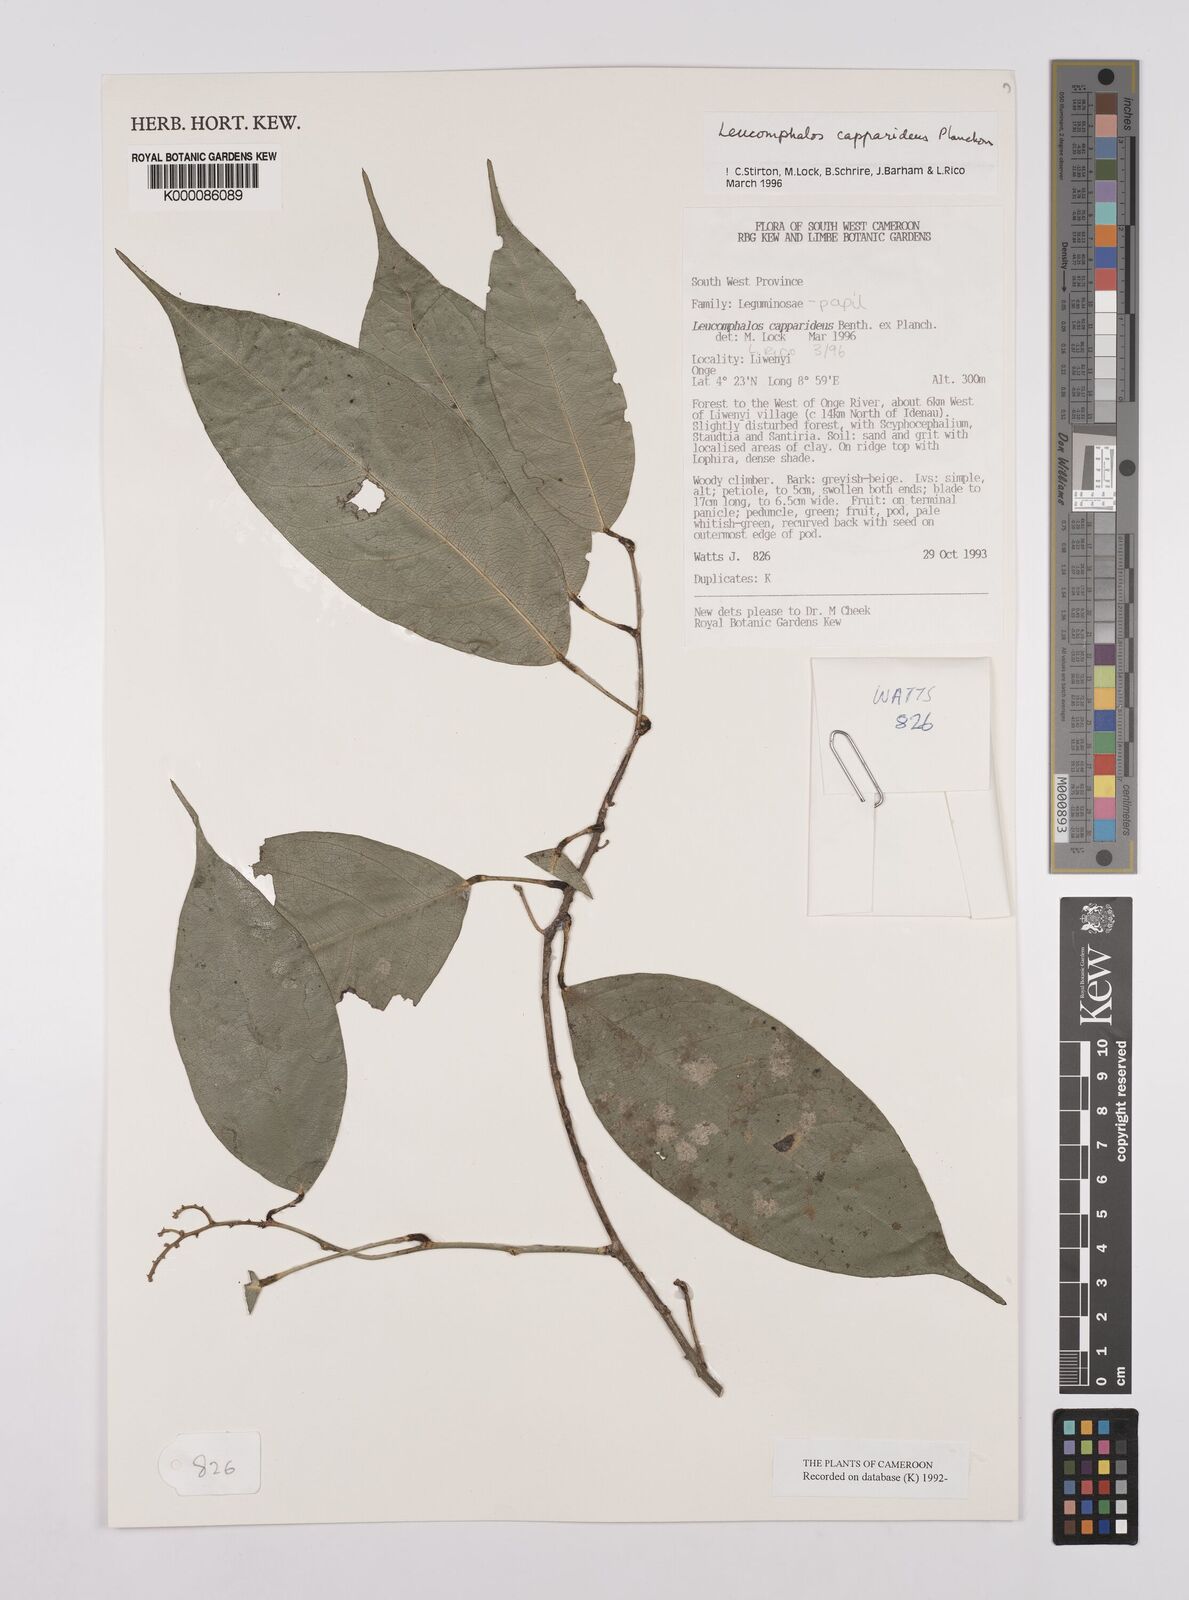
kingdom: Plantae
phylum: Tracheophyta
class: Magnoliopsida
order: Fabales
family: Fabaceae
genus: Leucomphalos
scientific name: Leucomphalos
